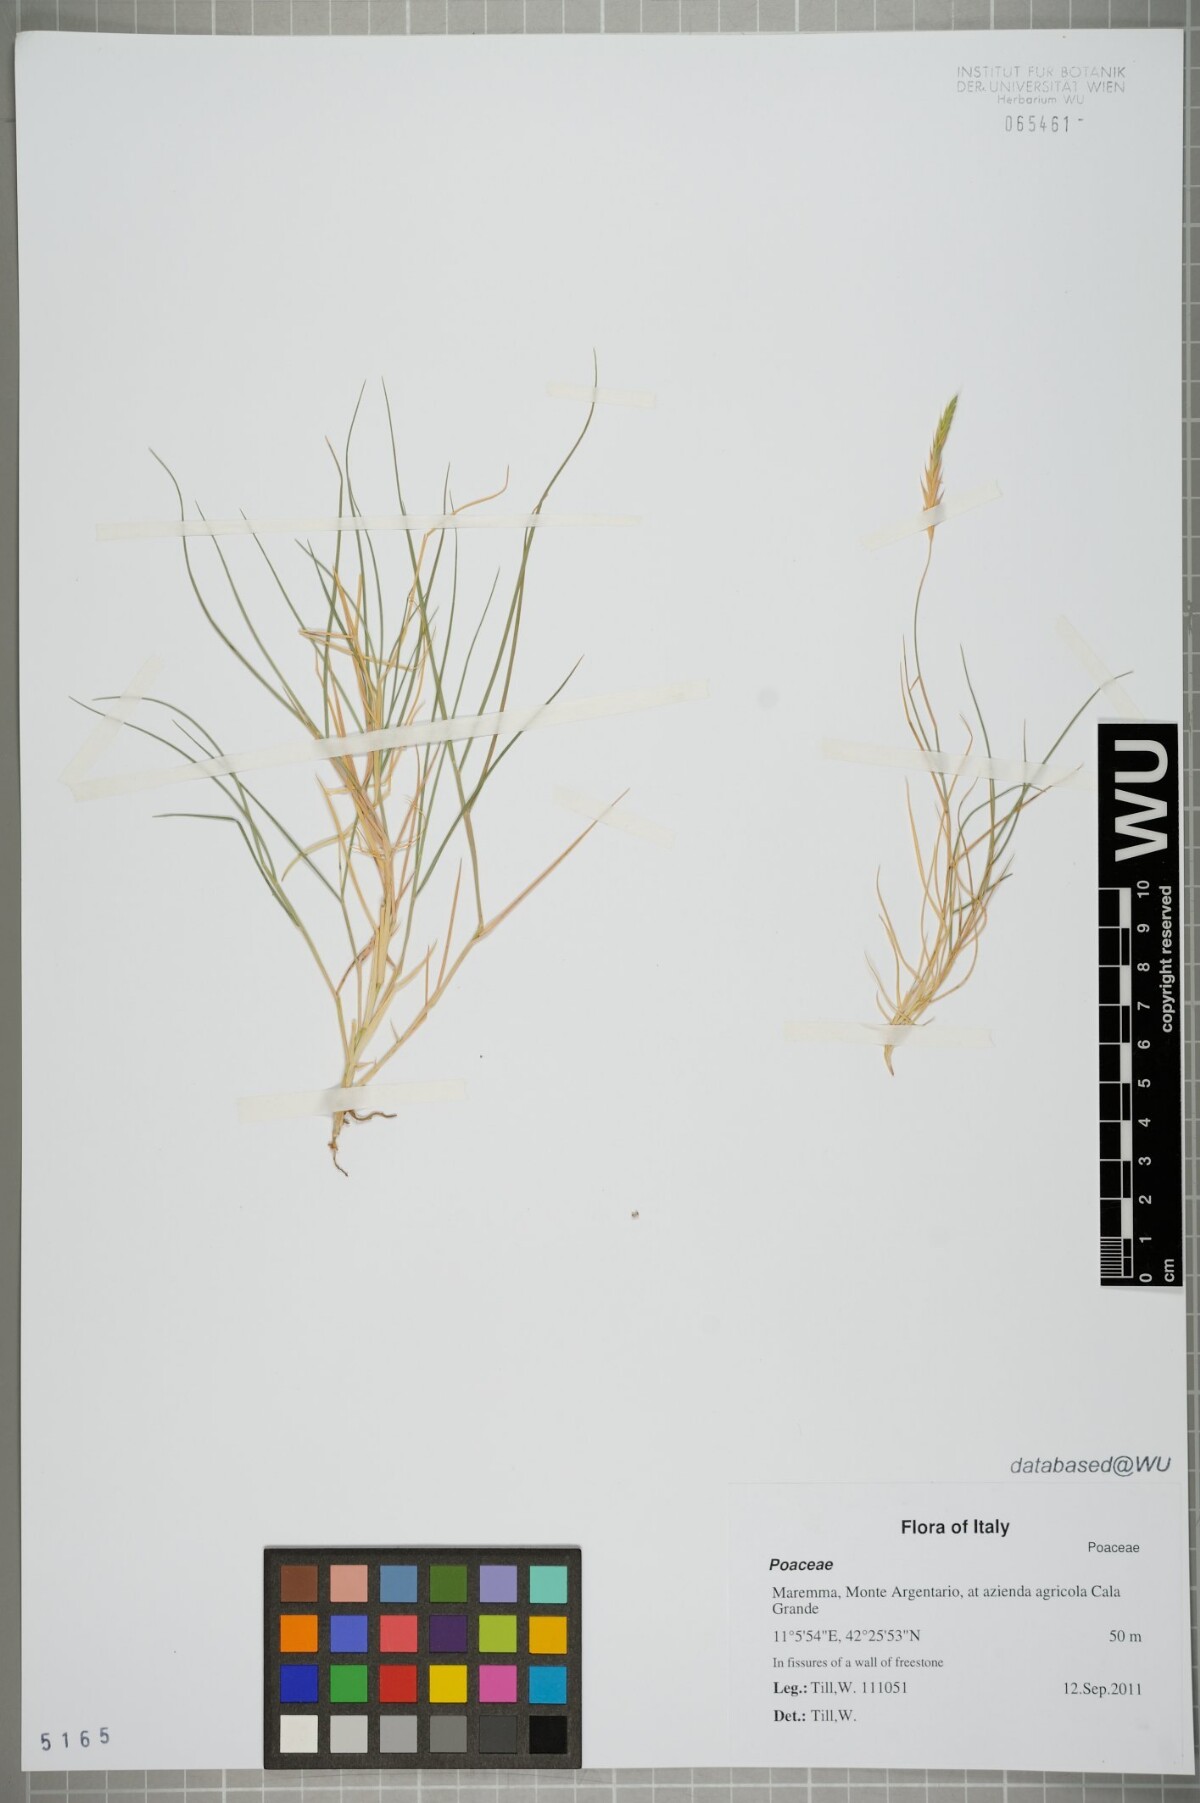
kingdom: Plantae
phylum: Tracheophyta
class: Liliopsida
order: Poales
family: Poaceae
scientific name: Poaceae
